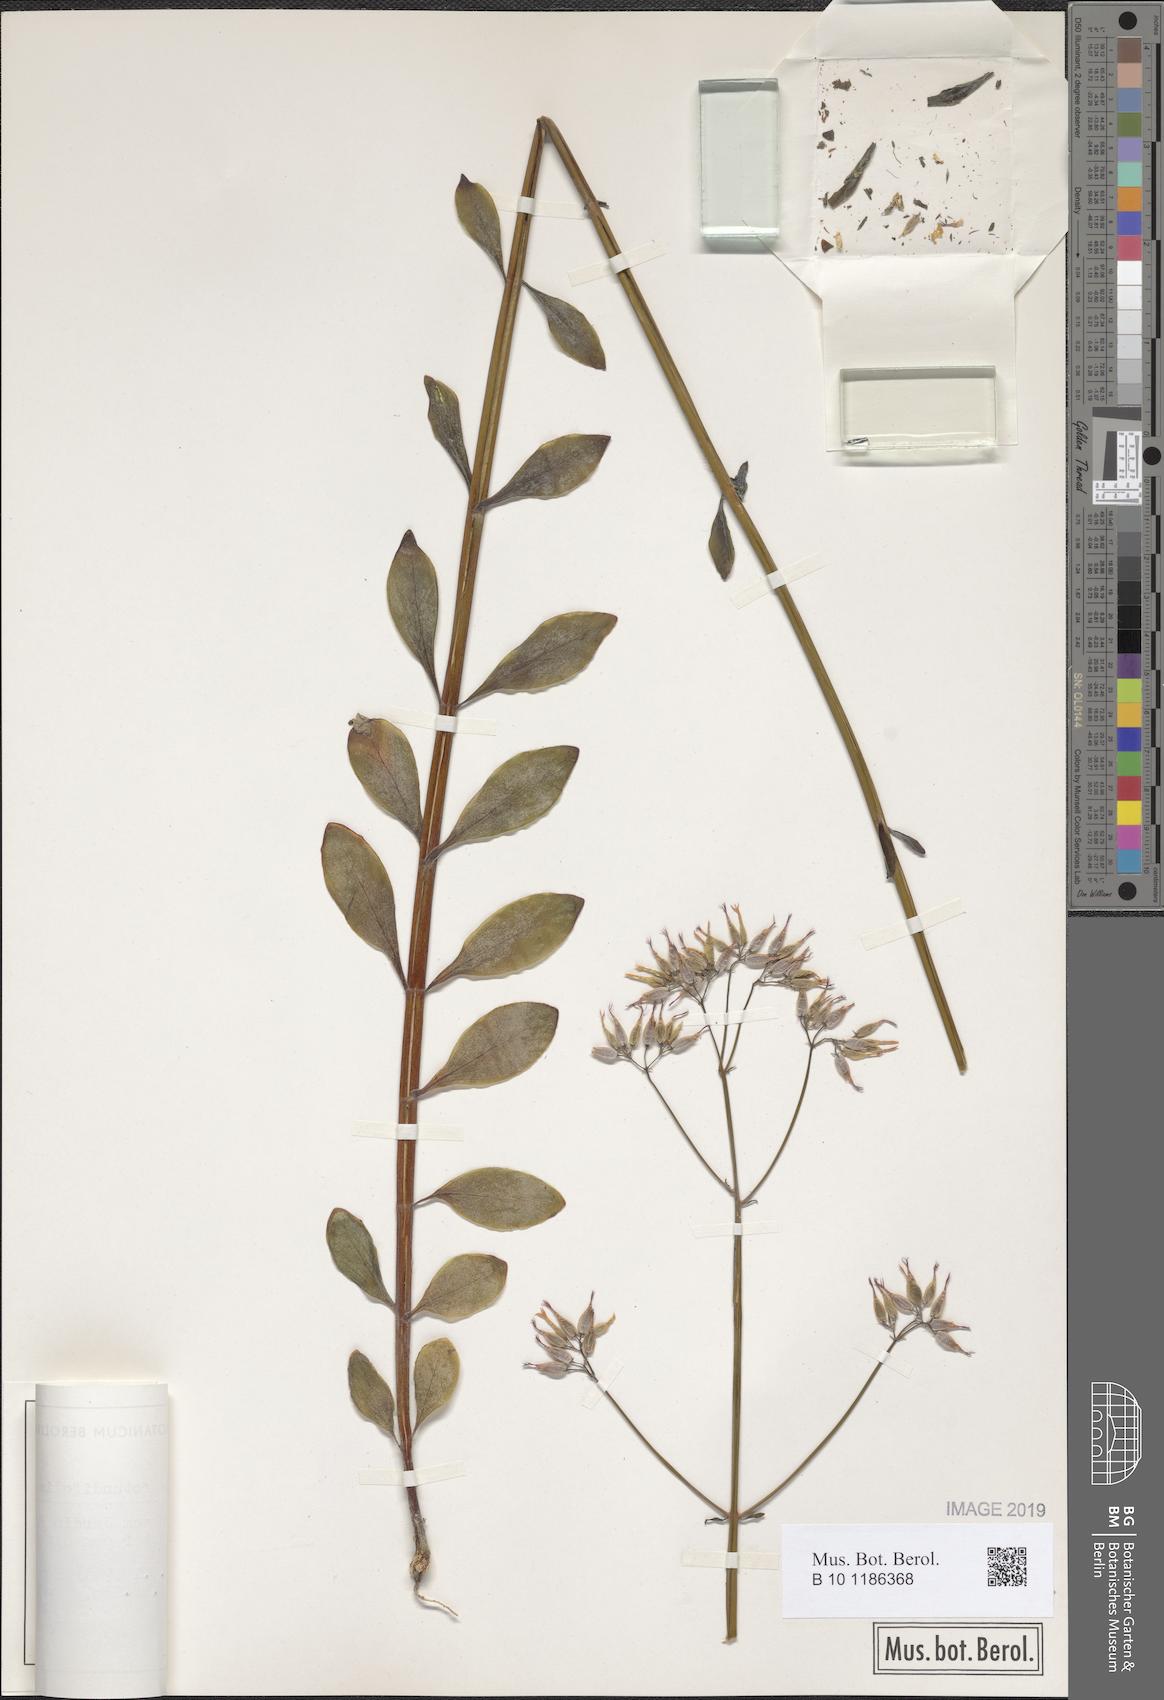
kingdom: Plantae
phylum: Tracheophyta
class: Magnoliopsida
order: Saxifragales
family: Crassulaceae
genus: Kalanchoe
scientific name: Kalanchoe rotundifolia
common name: Common kalanchoe
